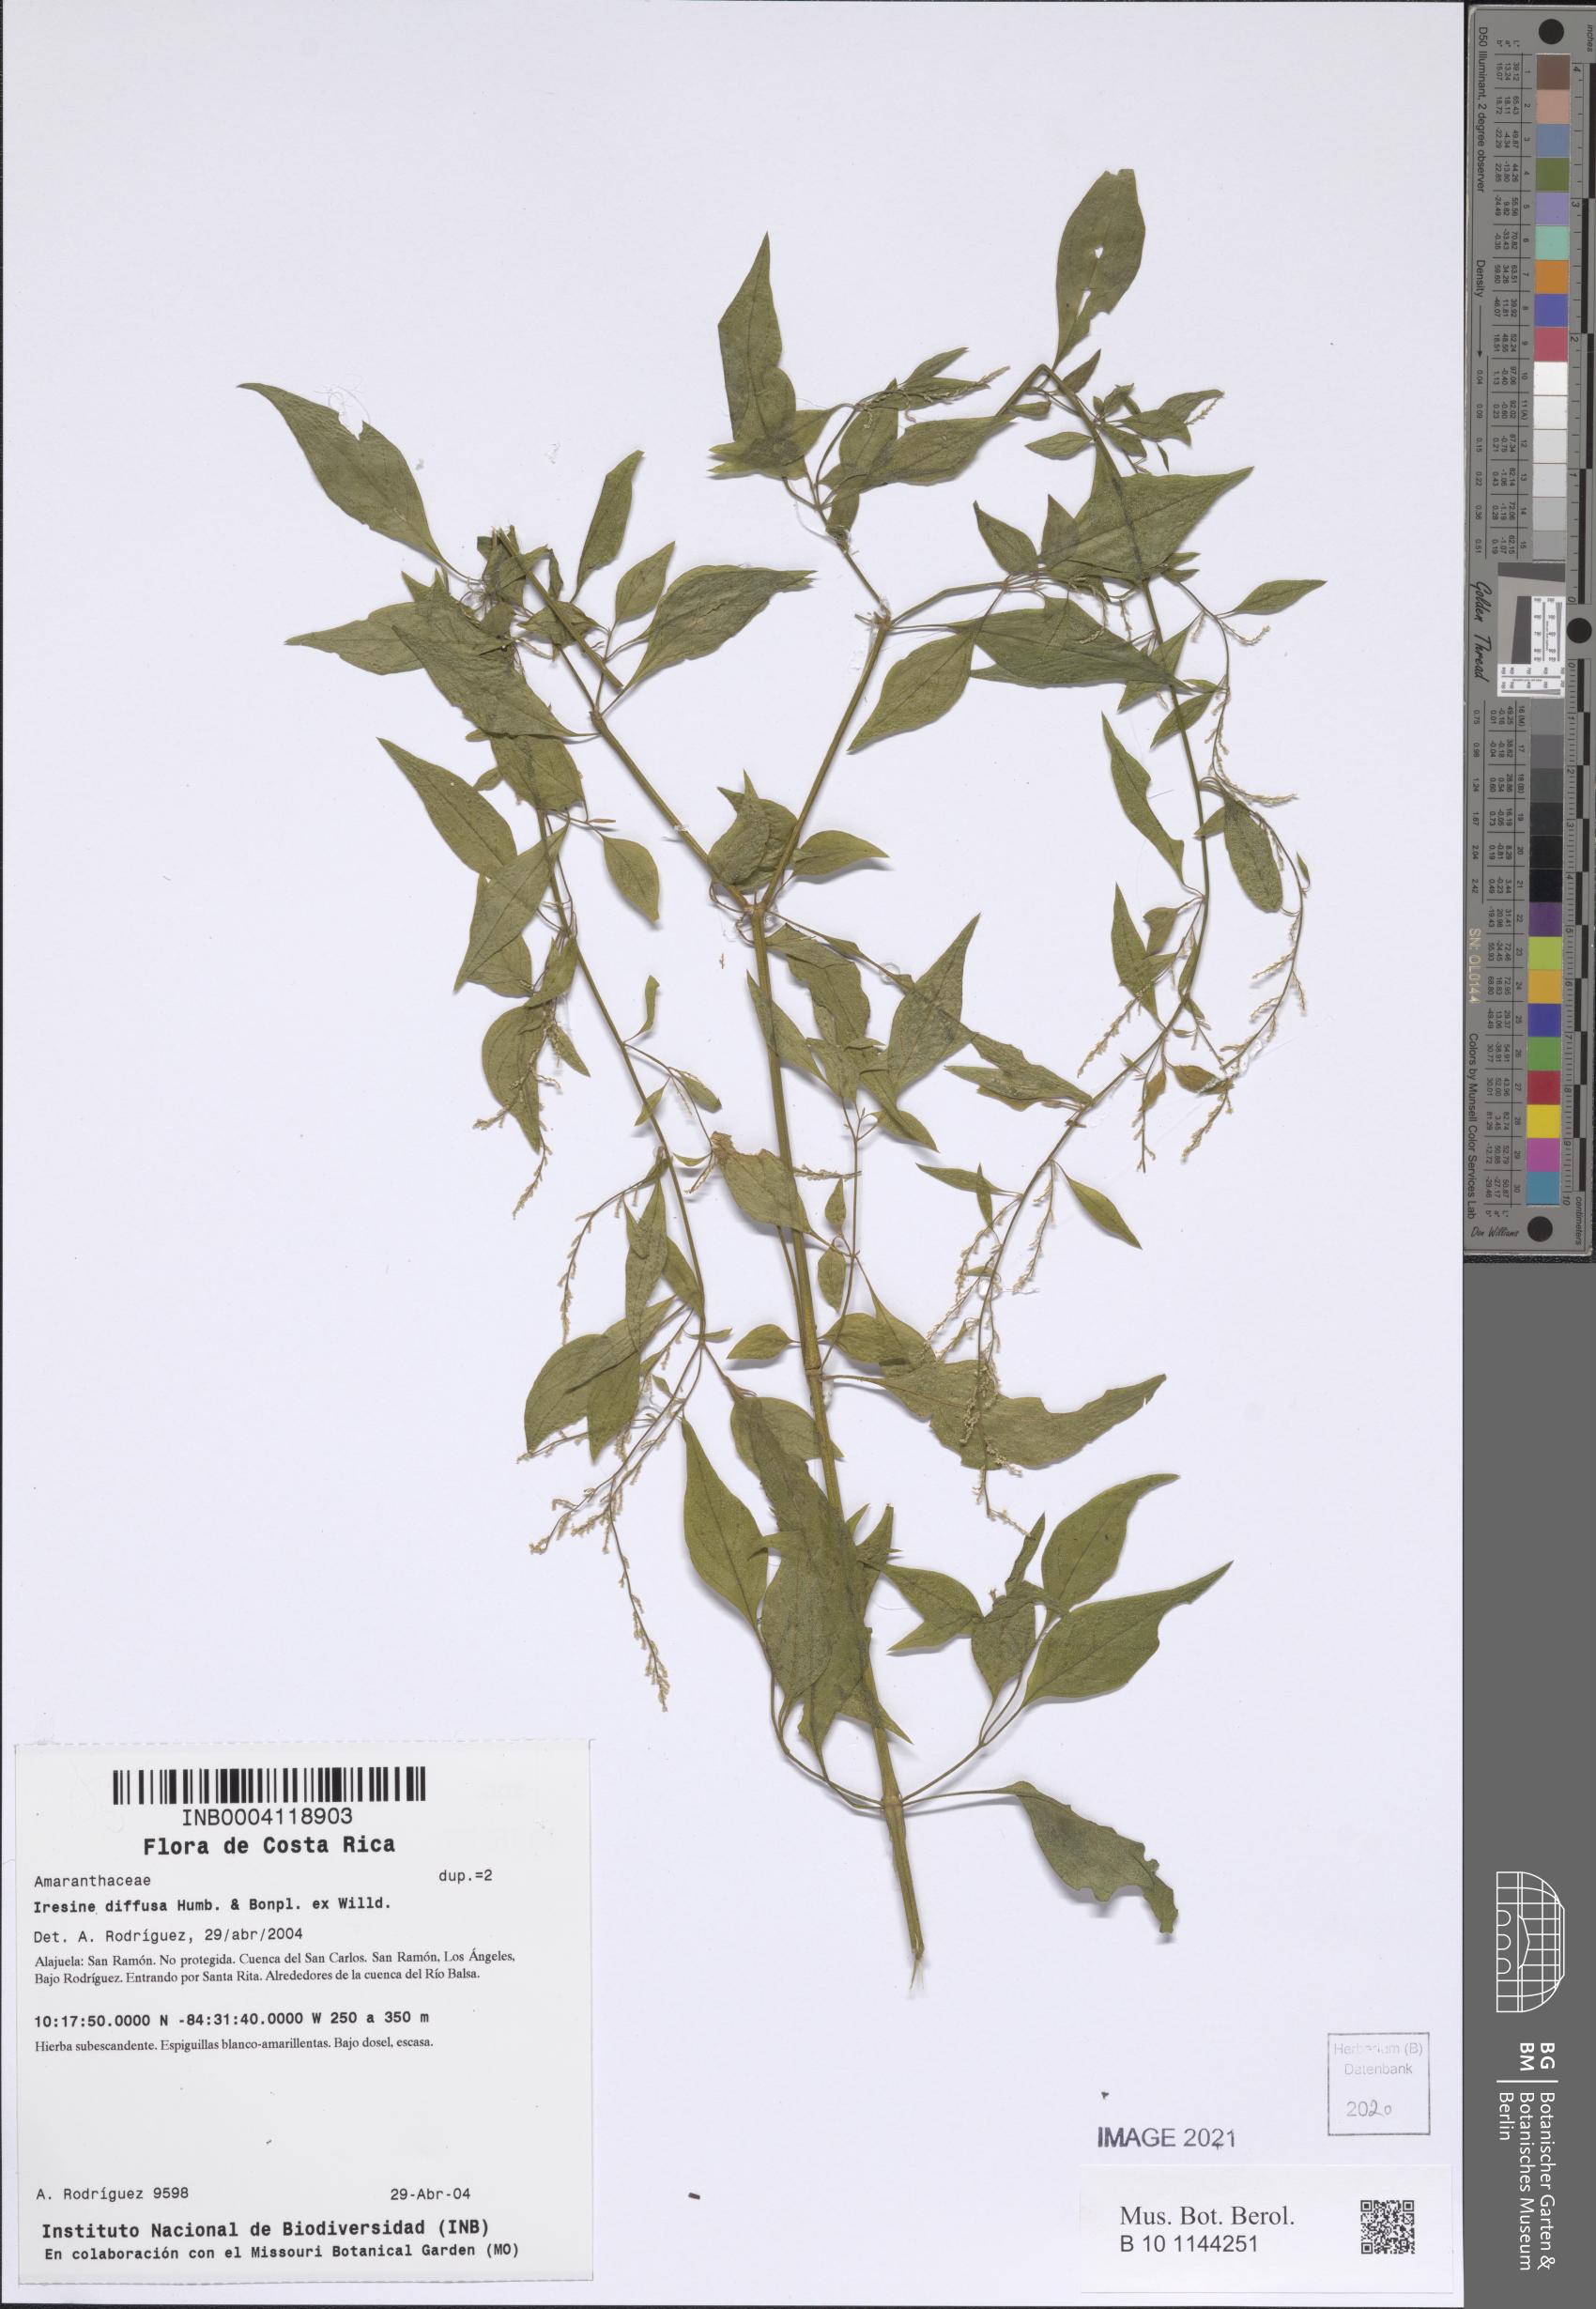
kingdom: Plantae
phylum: Tracheophyta
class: Magnoliopsida
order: Caryophyllales
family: Amaranthaceae
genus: Iresine
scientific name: Iresine diffusa
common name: Juba's-bush
